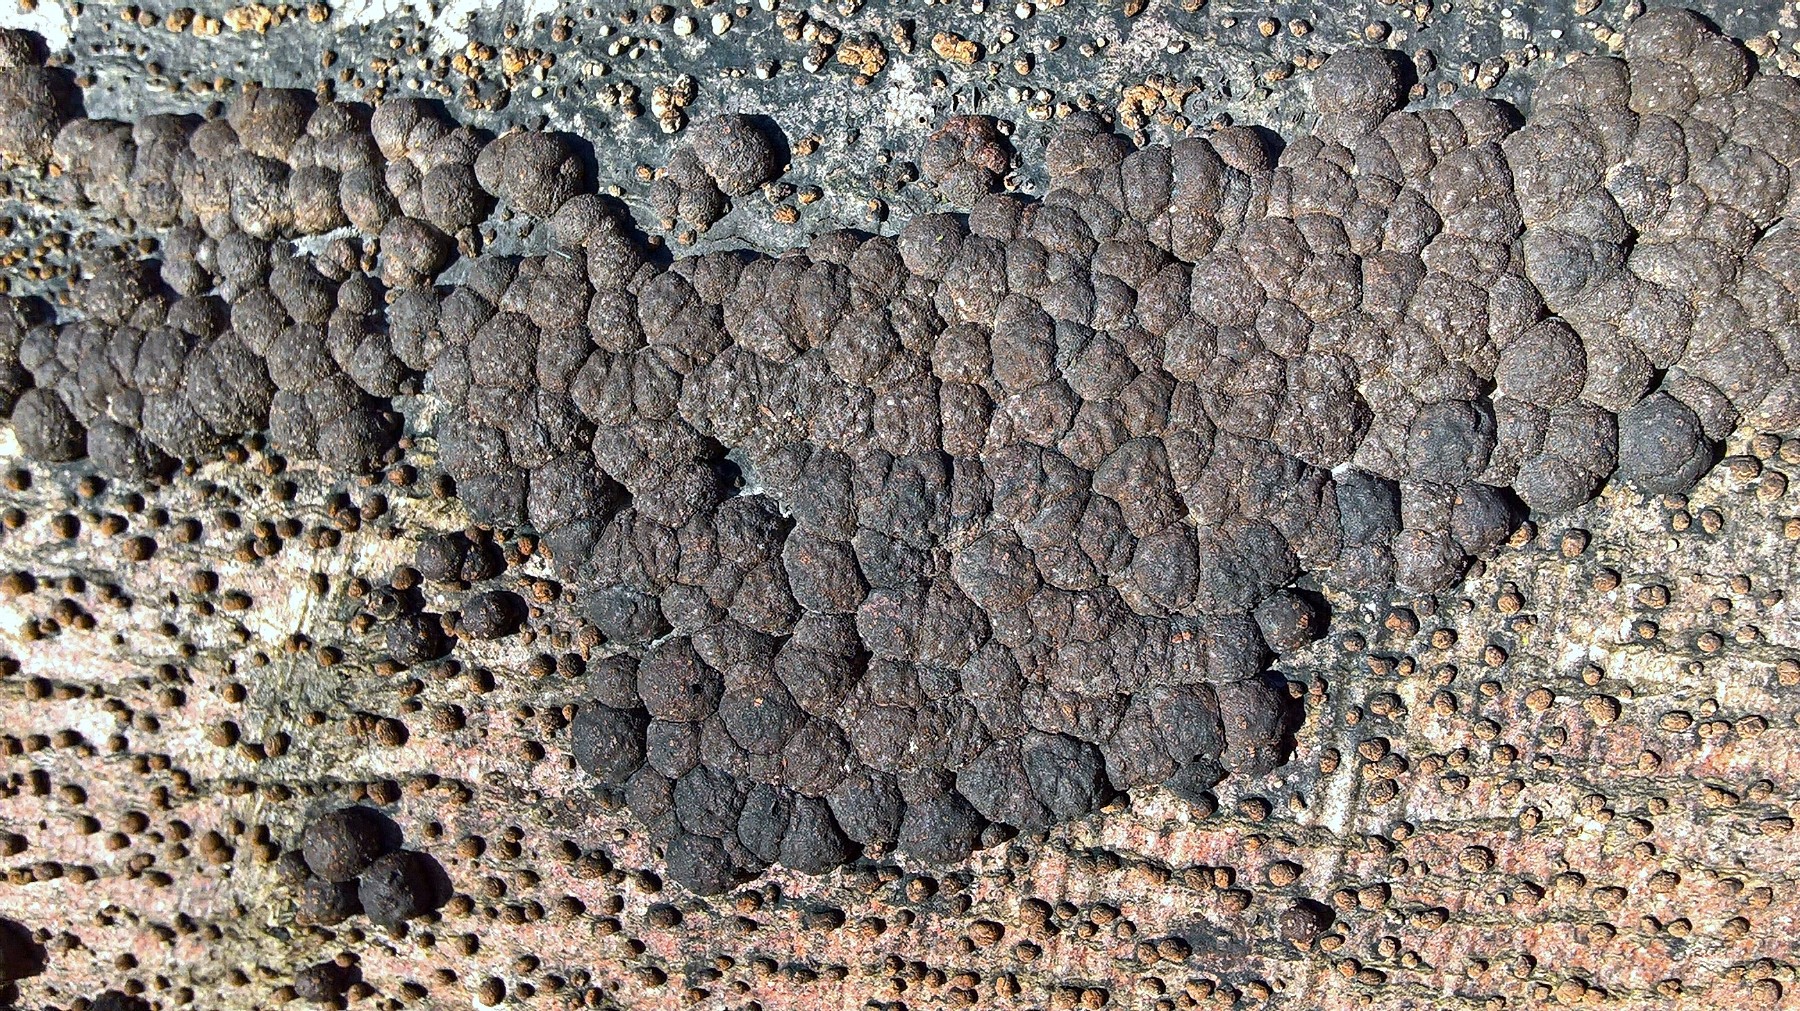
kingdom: Fungi
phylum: Ascomycota
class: Sordariomycetes
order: Xylariales
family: Hypoxylaceae
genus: Jackrogersella
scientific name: Jackrogersella cohaerens
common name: sammenflydende kulbær
